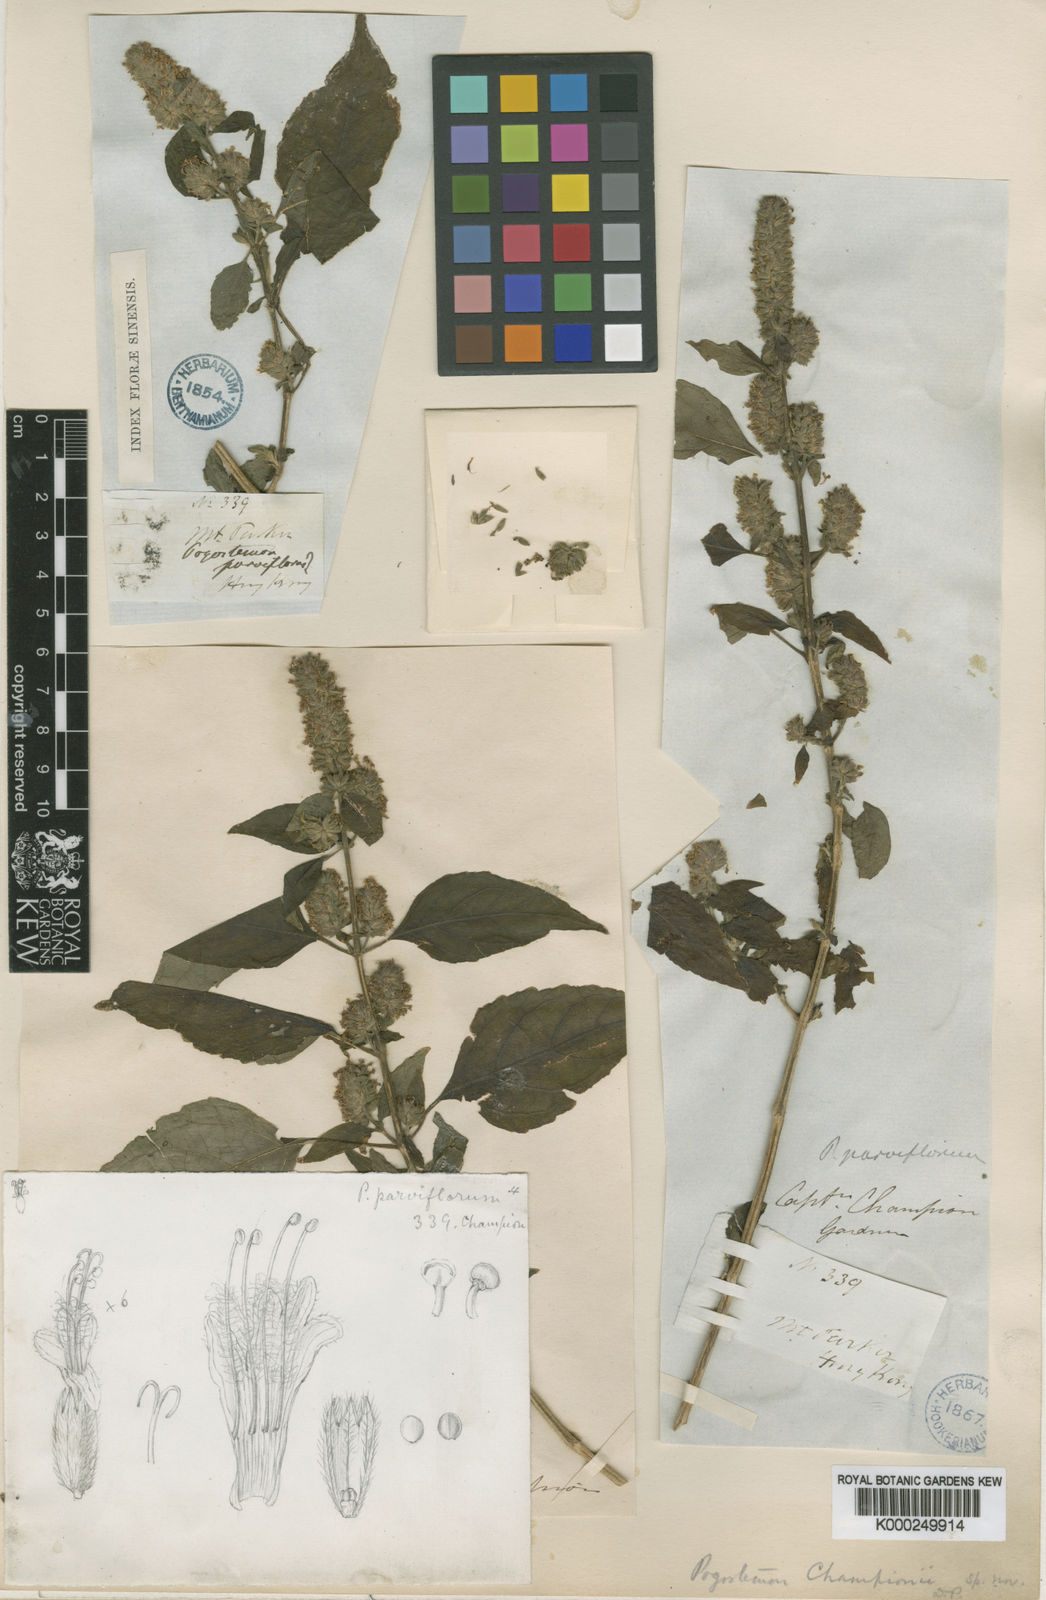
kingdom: Plantae
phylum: Tracheophyta
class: Magnoliopsida
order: Lamiales
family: Lamiaceae
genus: Pogostemon
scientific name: Pogostemon parviflorus
